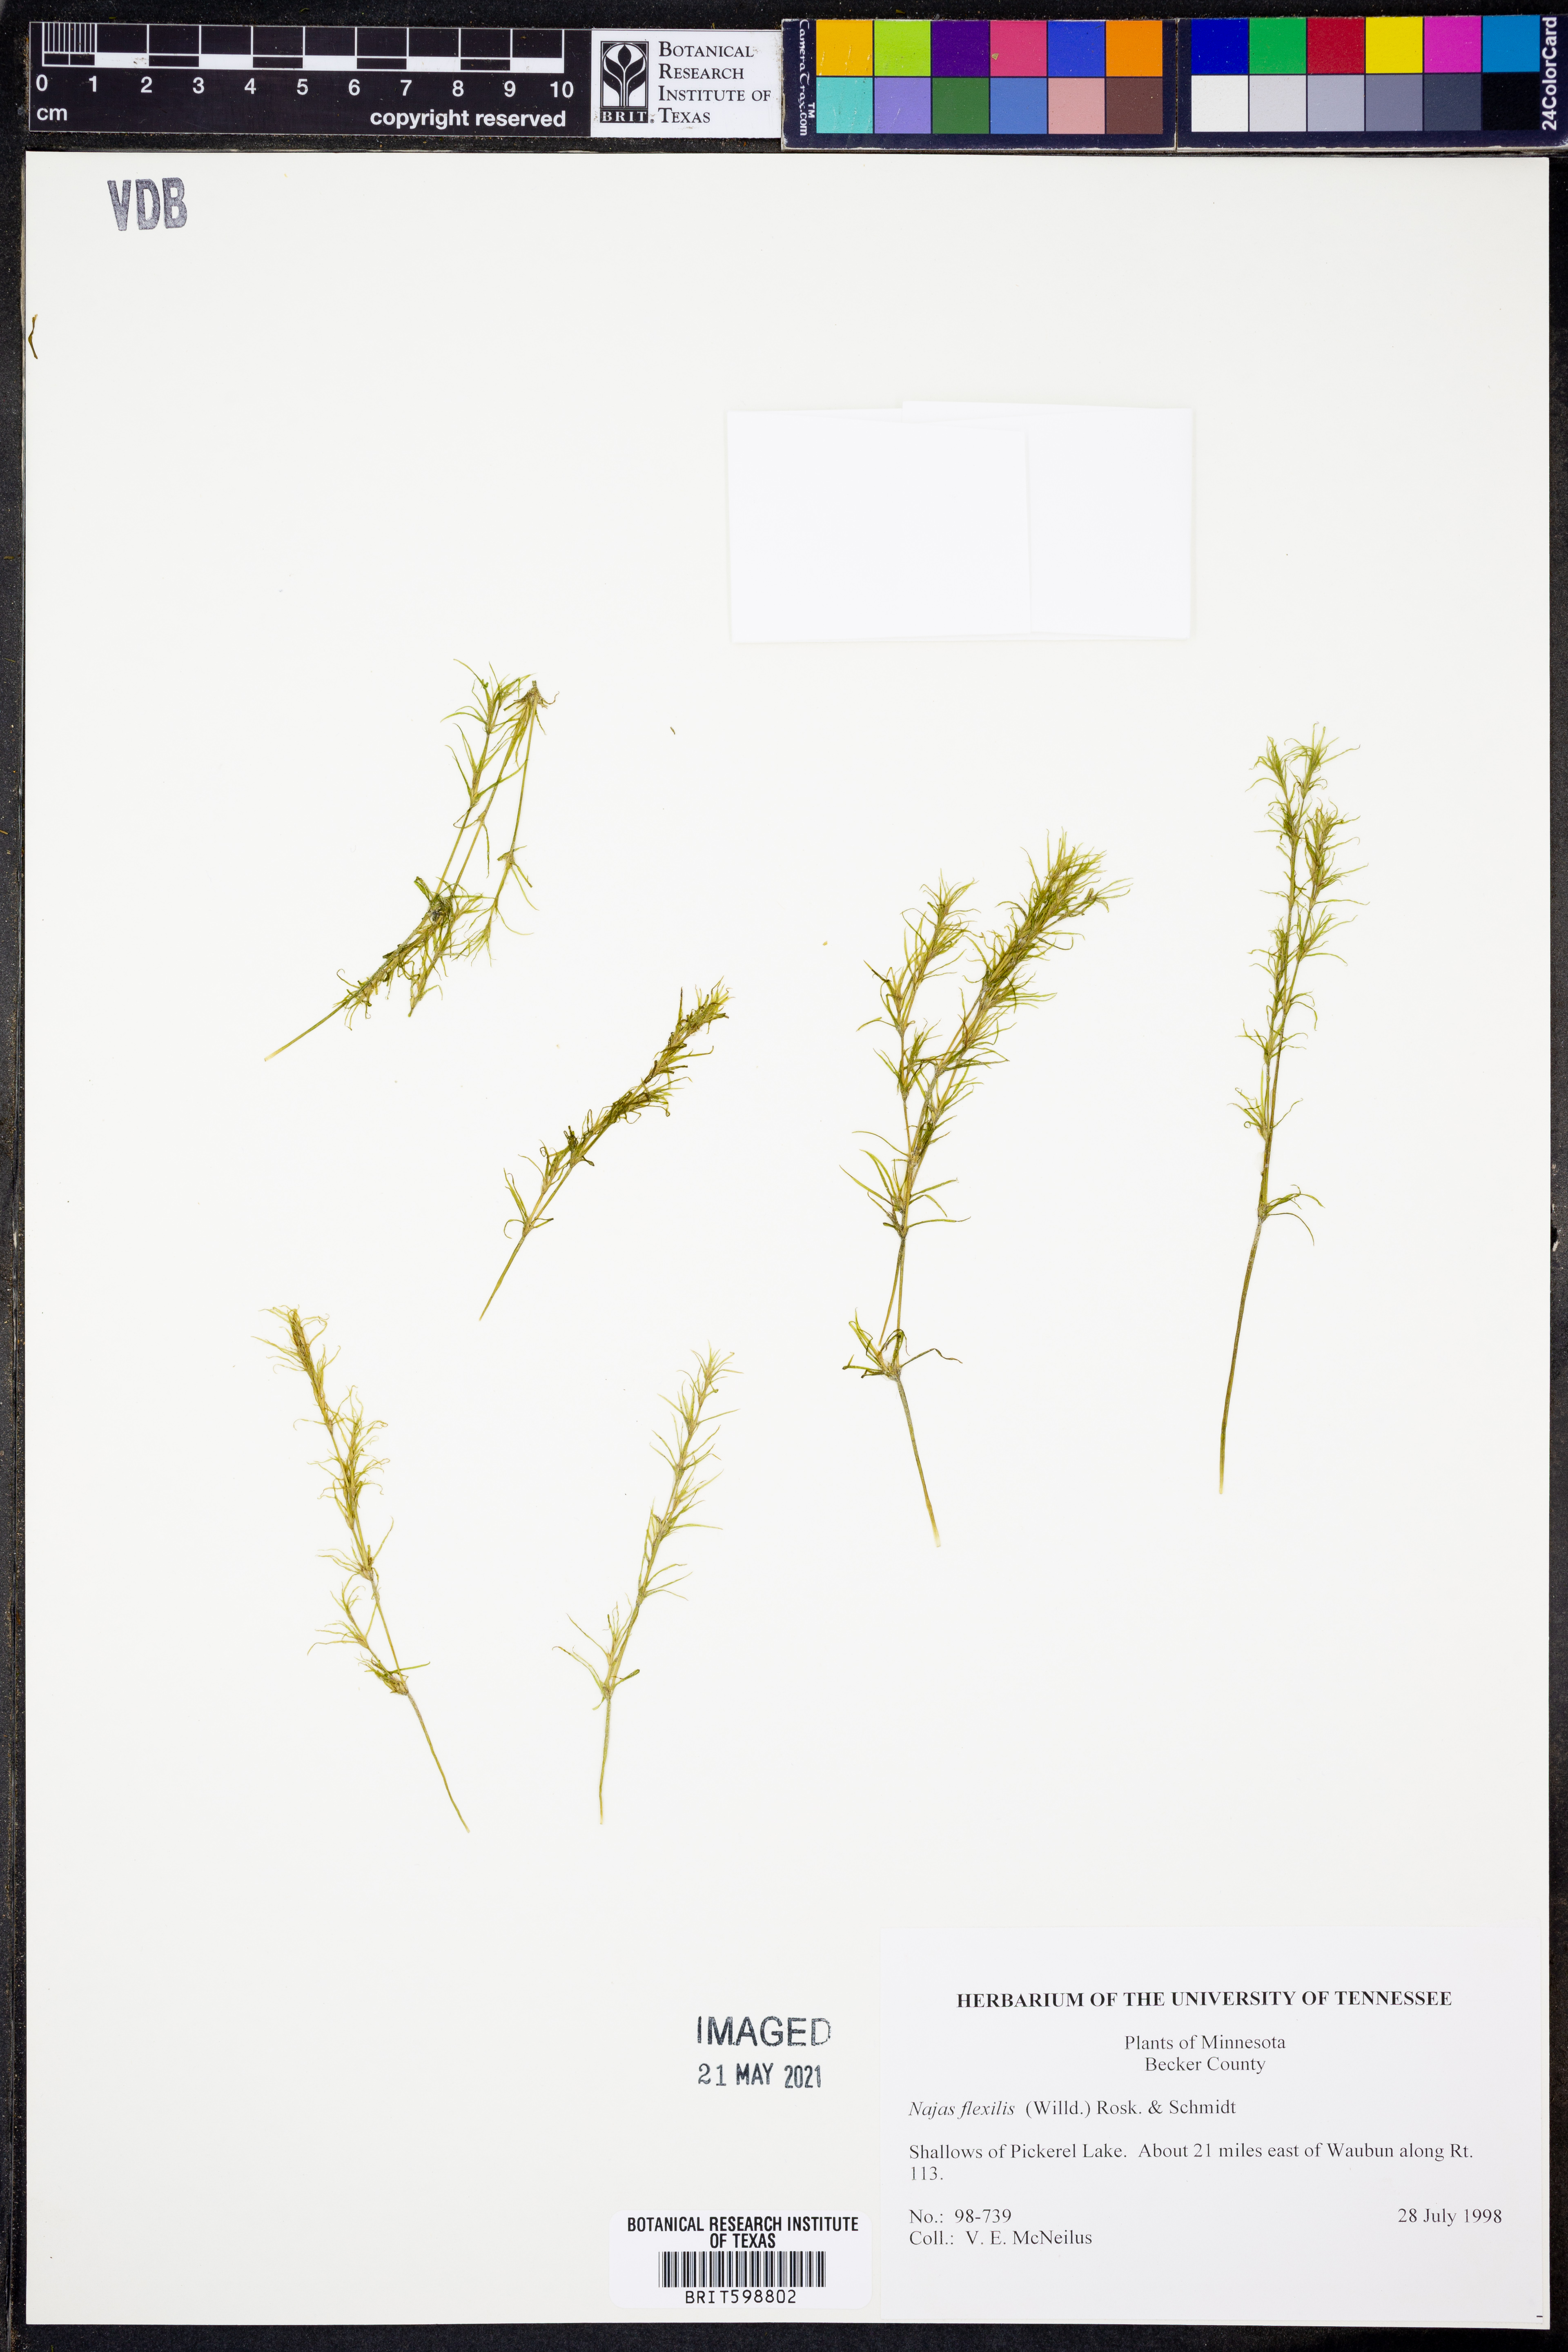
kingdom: Plantae
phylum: Tracheophyta
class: Liliopsida
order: Alismatales
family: Hydrocharitaceae
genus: Najas
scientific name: Najas flexilis
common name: Slender naiad
